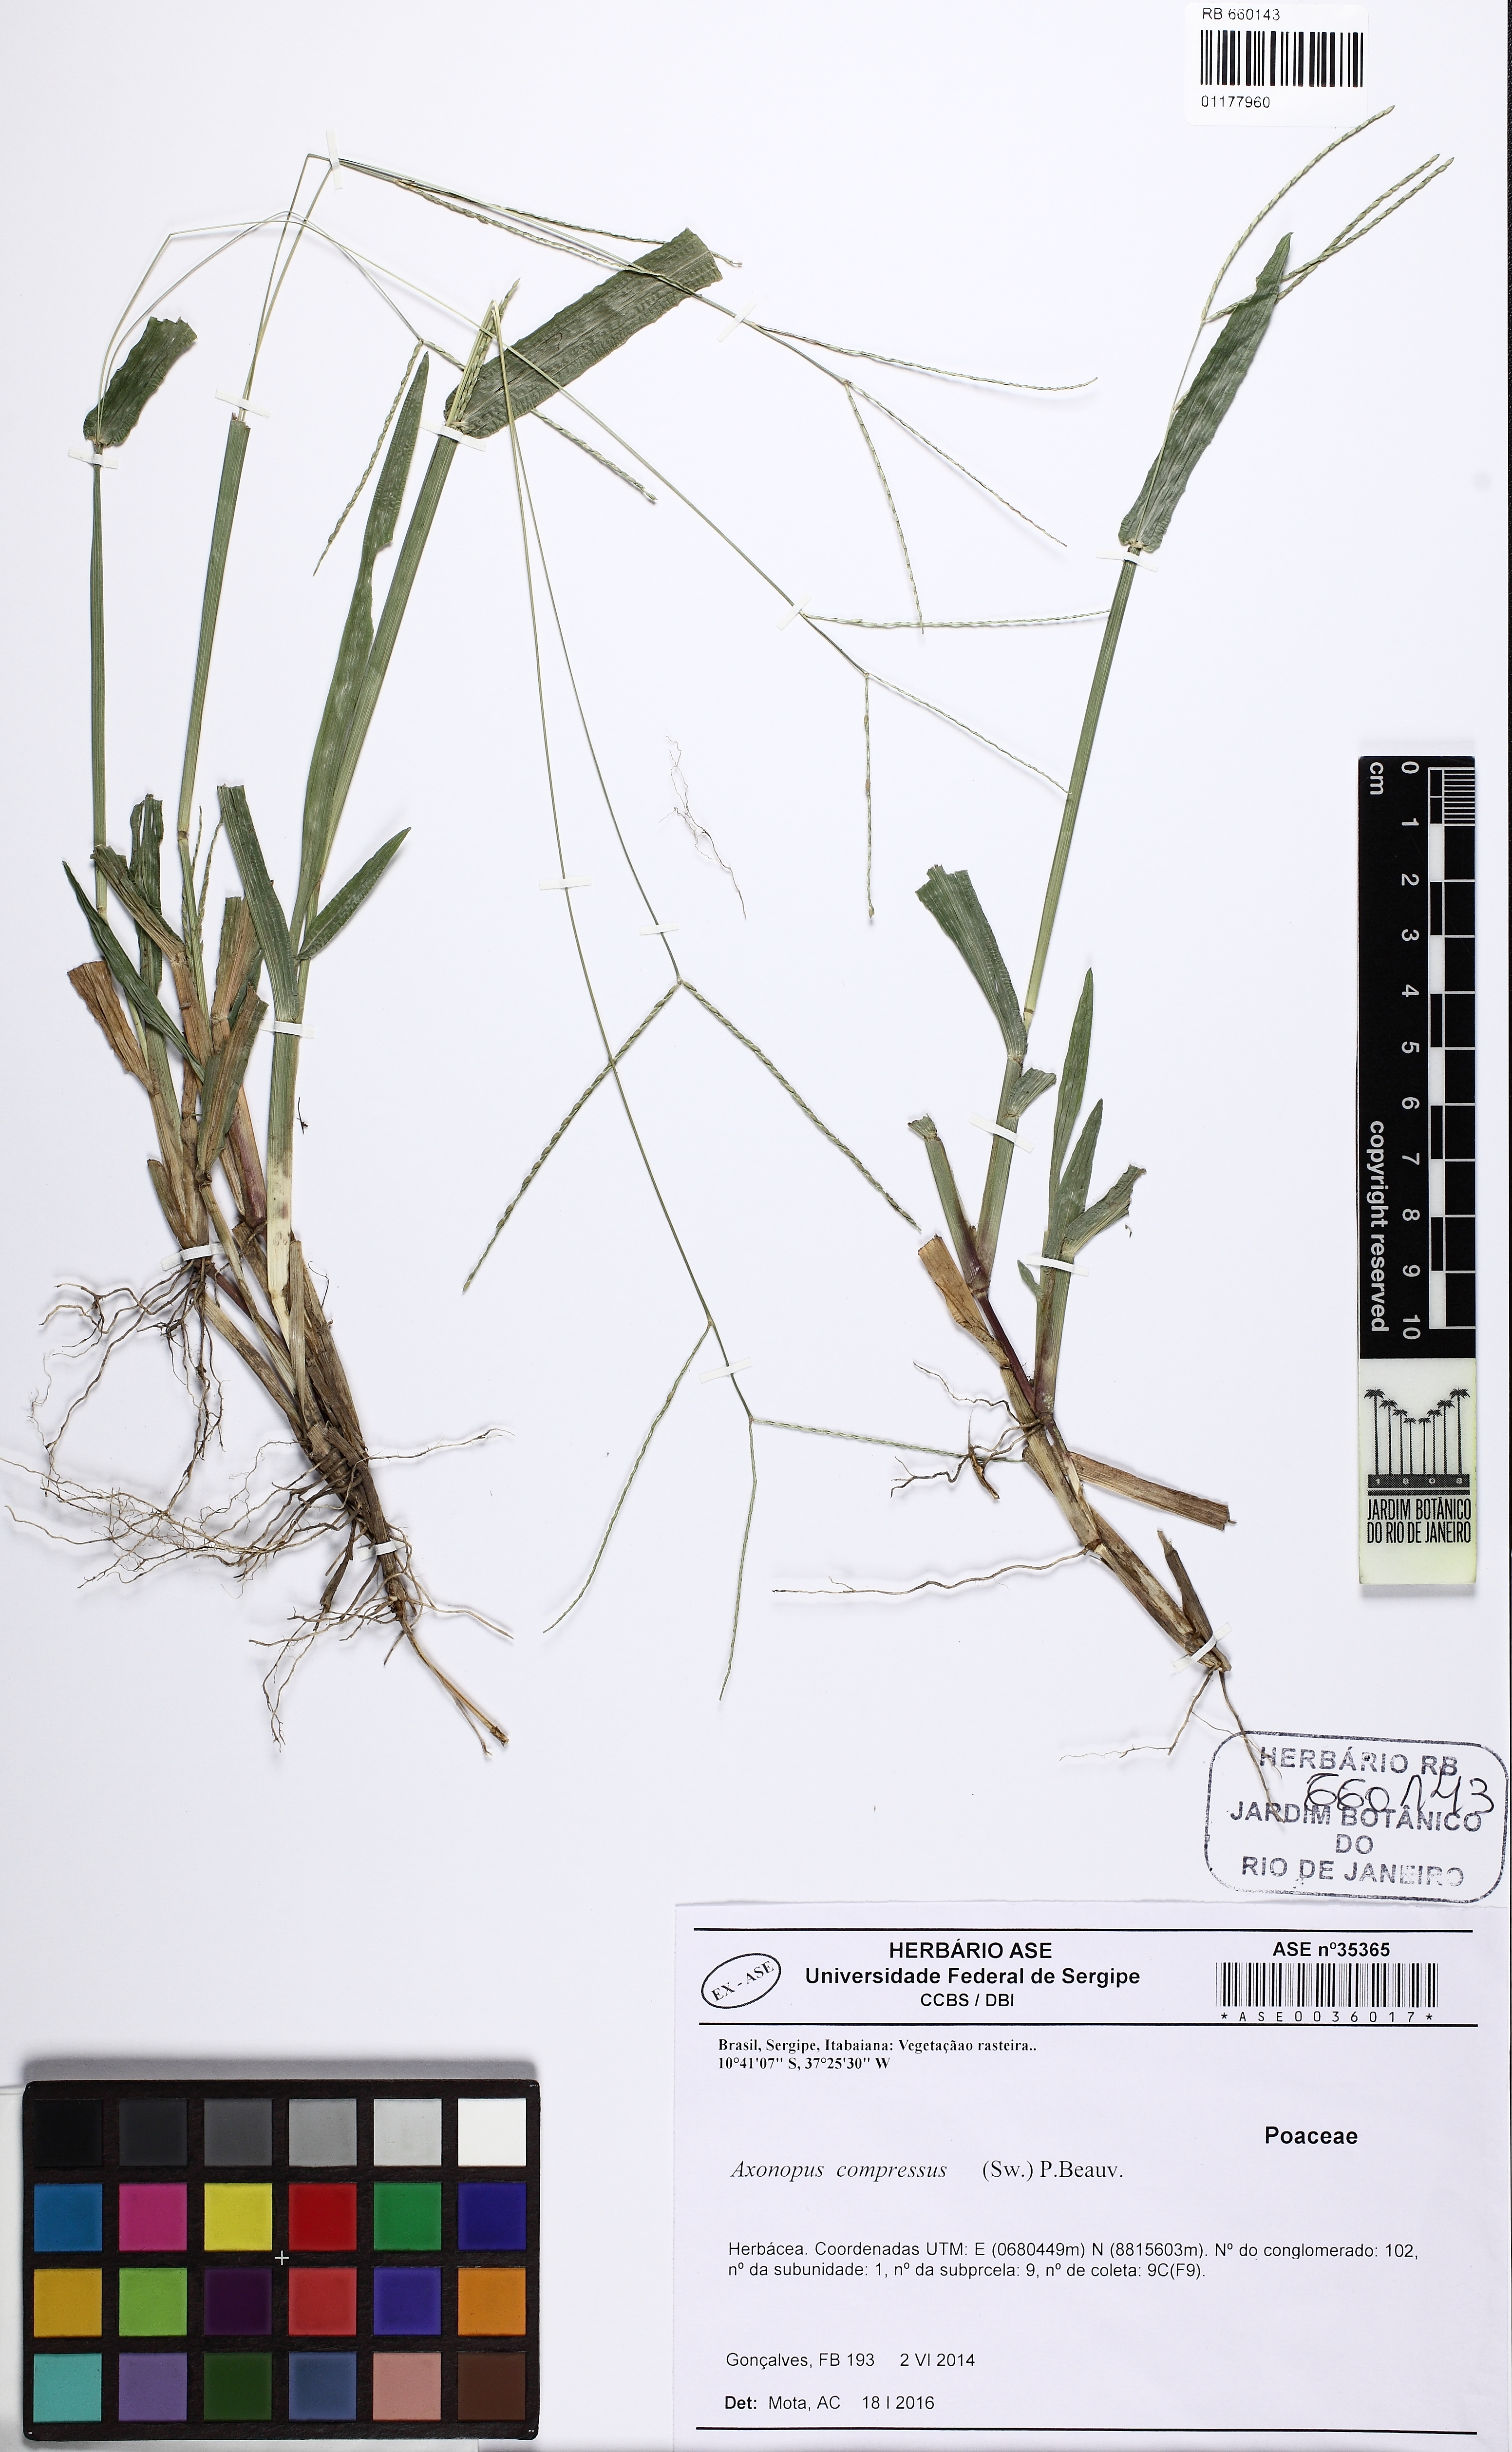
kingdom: Plantae
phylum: Tracheophyta
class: Liliopsida
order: Poales
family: Poaceae
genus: Axonopus
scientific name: Axonopus compressus
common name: American carpet grass
